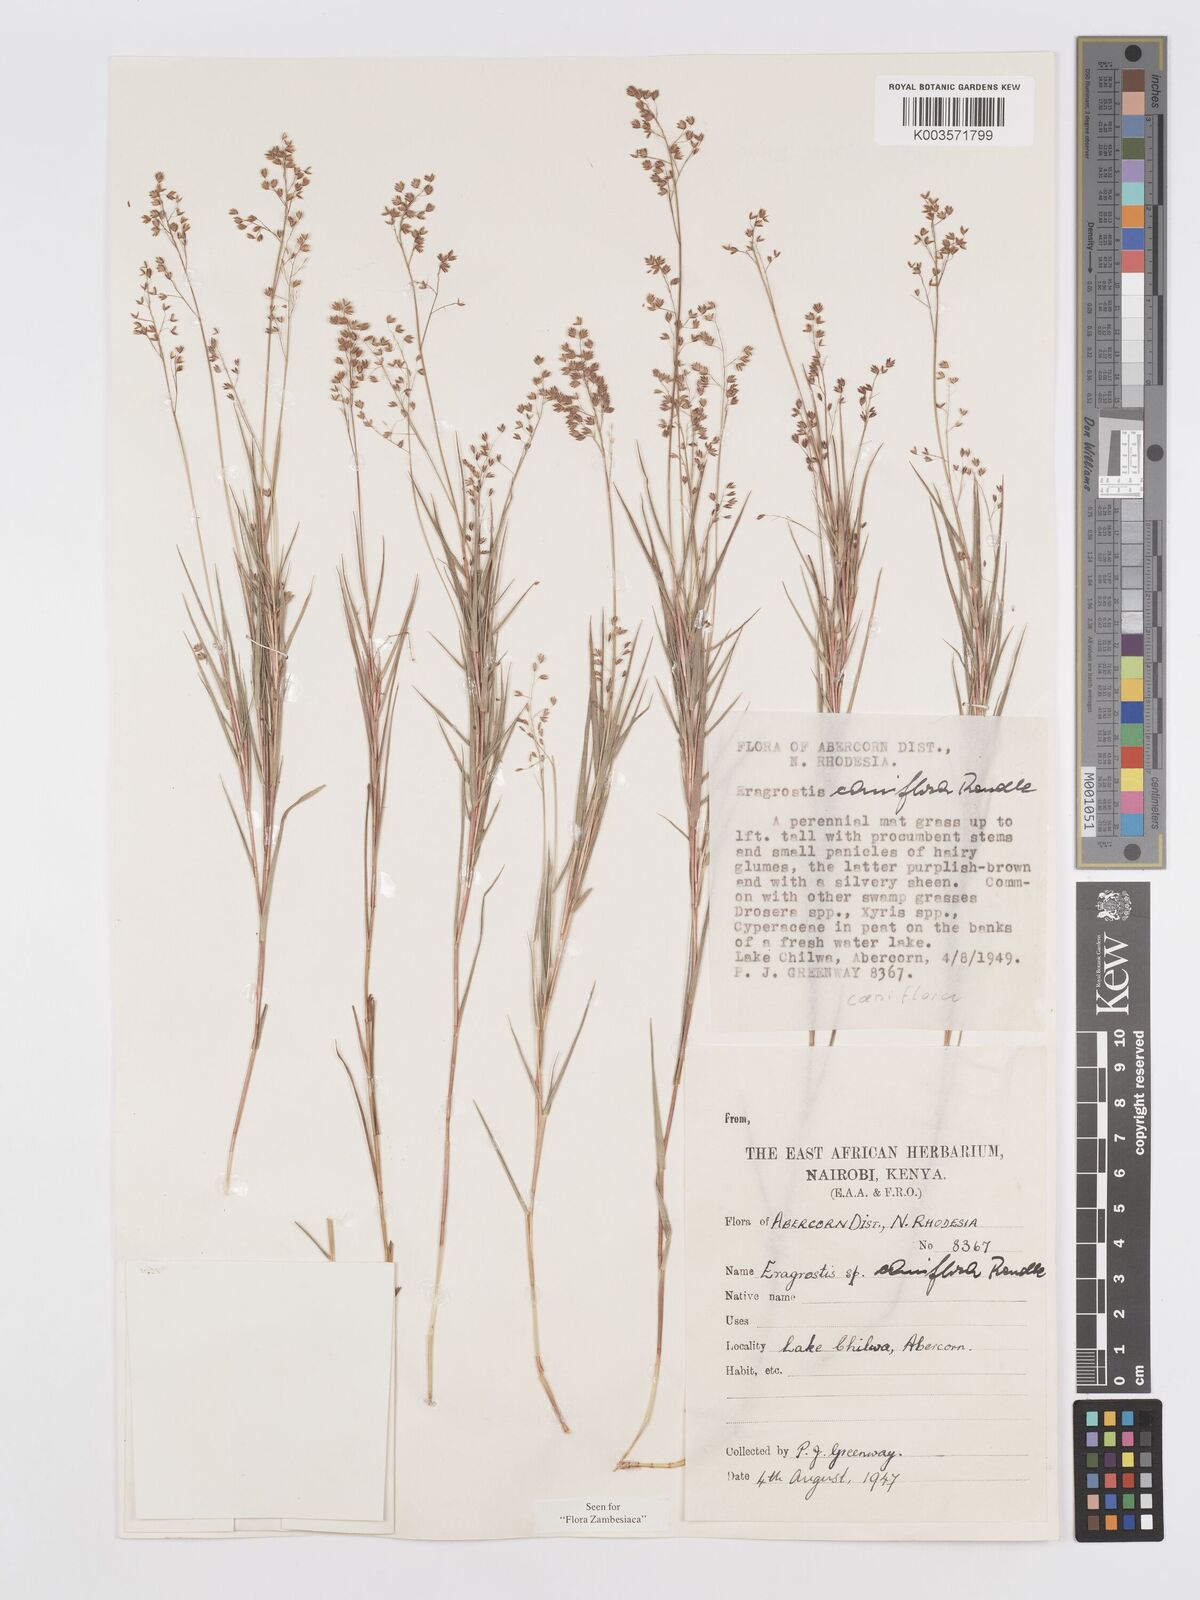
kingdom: Plantae
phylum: Tracheophyta
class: Liliopsida
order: Poales
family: Poaceae
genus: Eragrostis
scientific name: Eragrostis caniflora
